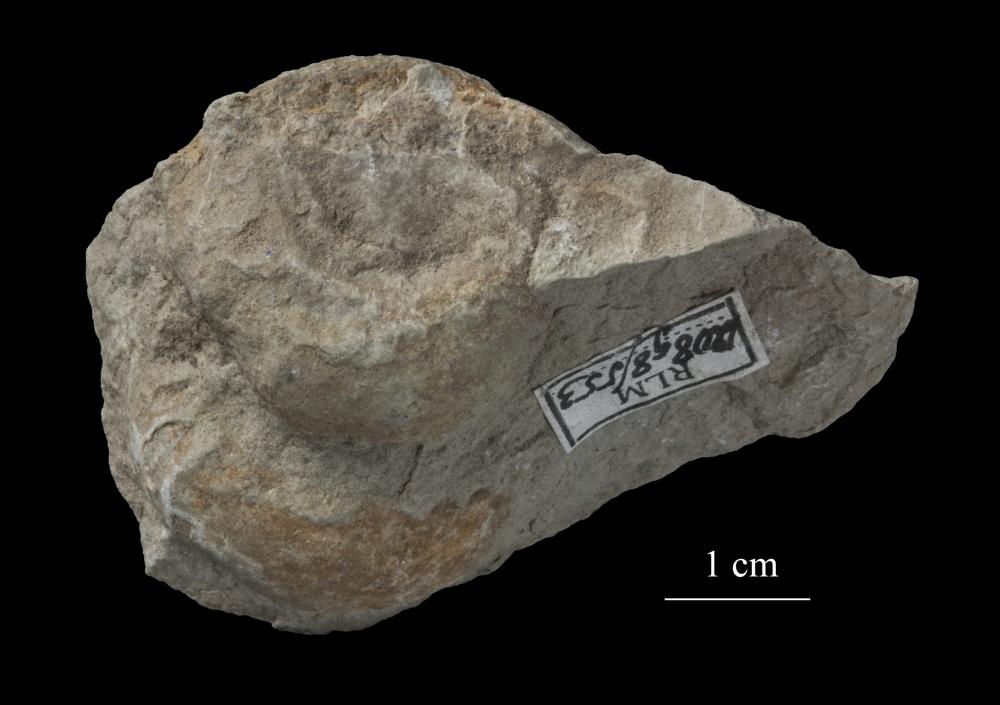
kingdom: Animalia
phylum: Mollusca
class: Gastropoda
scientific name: Gastropoda
